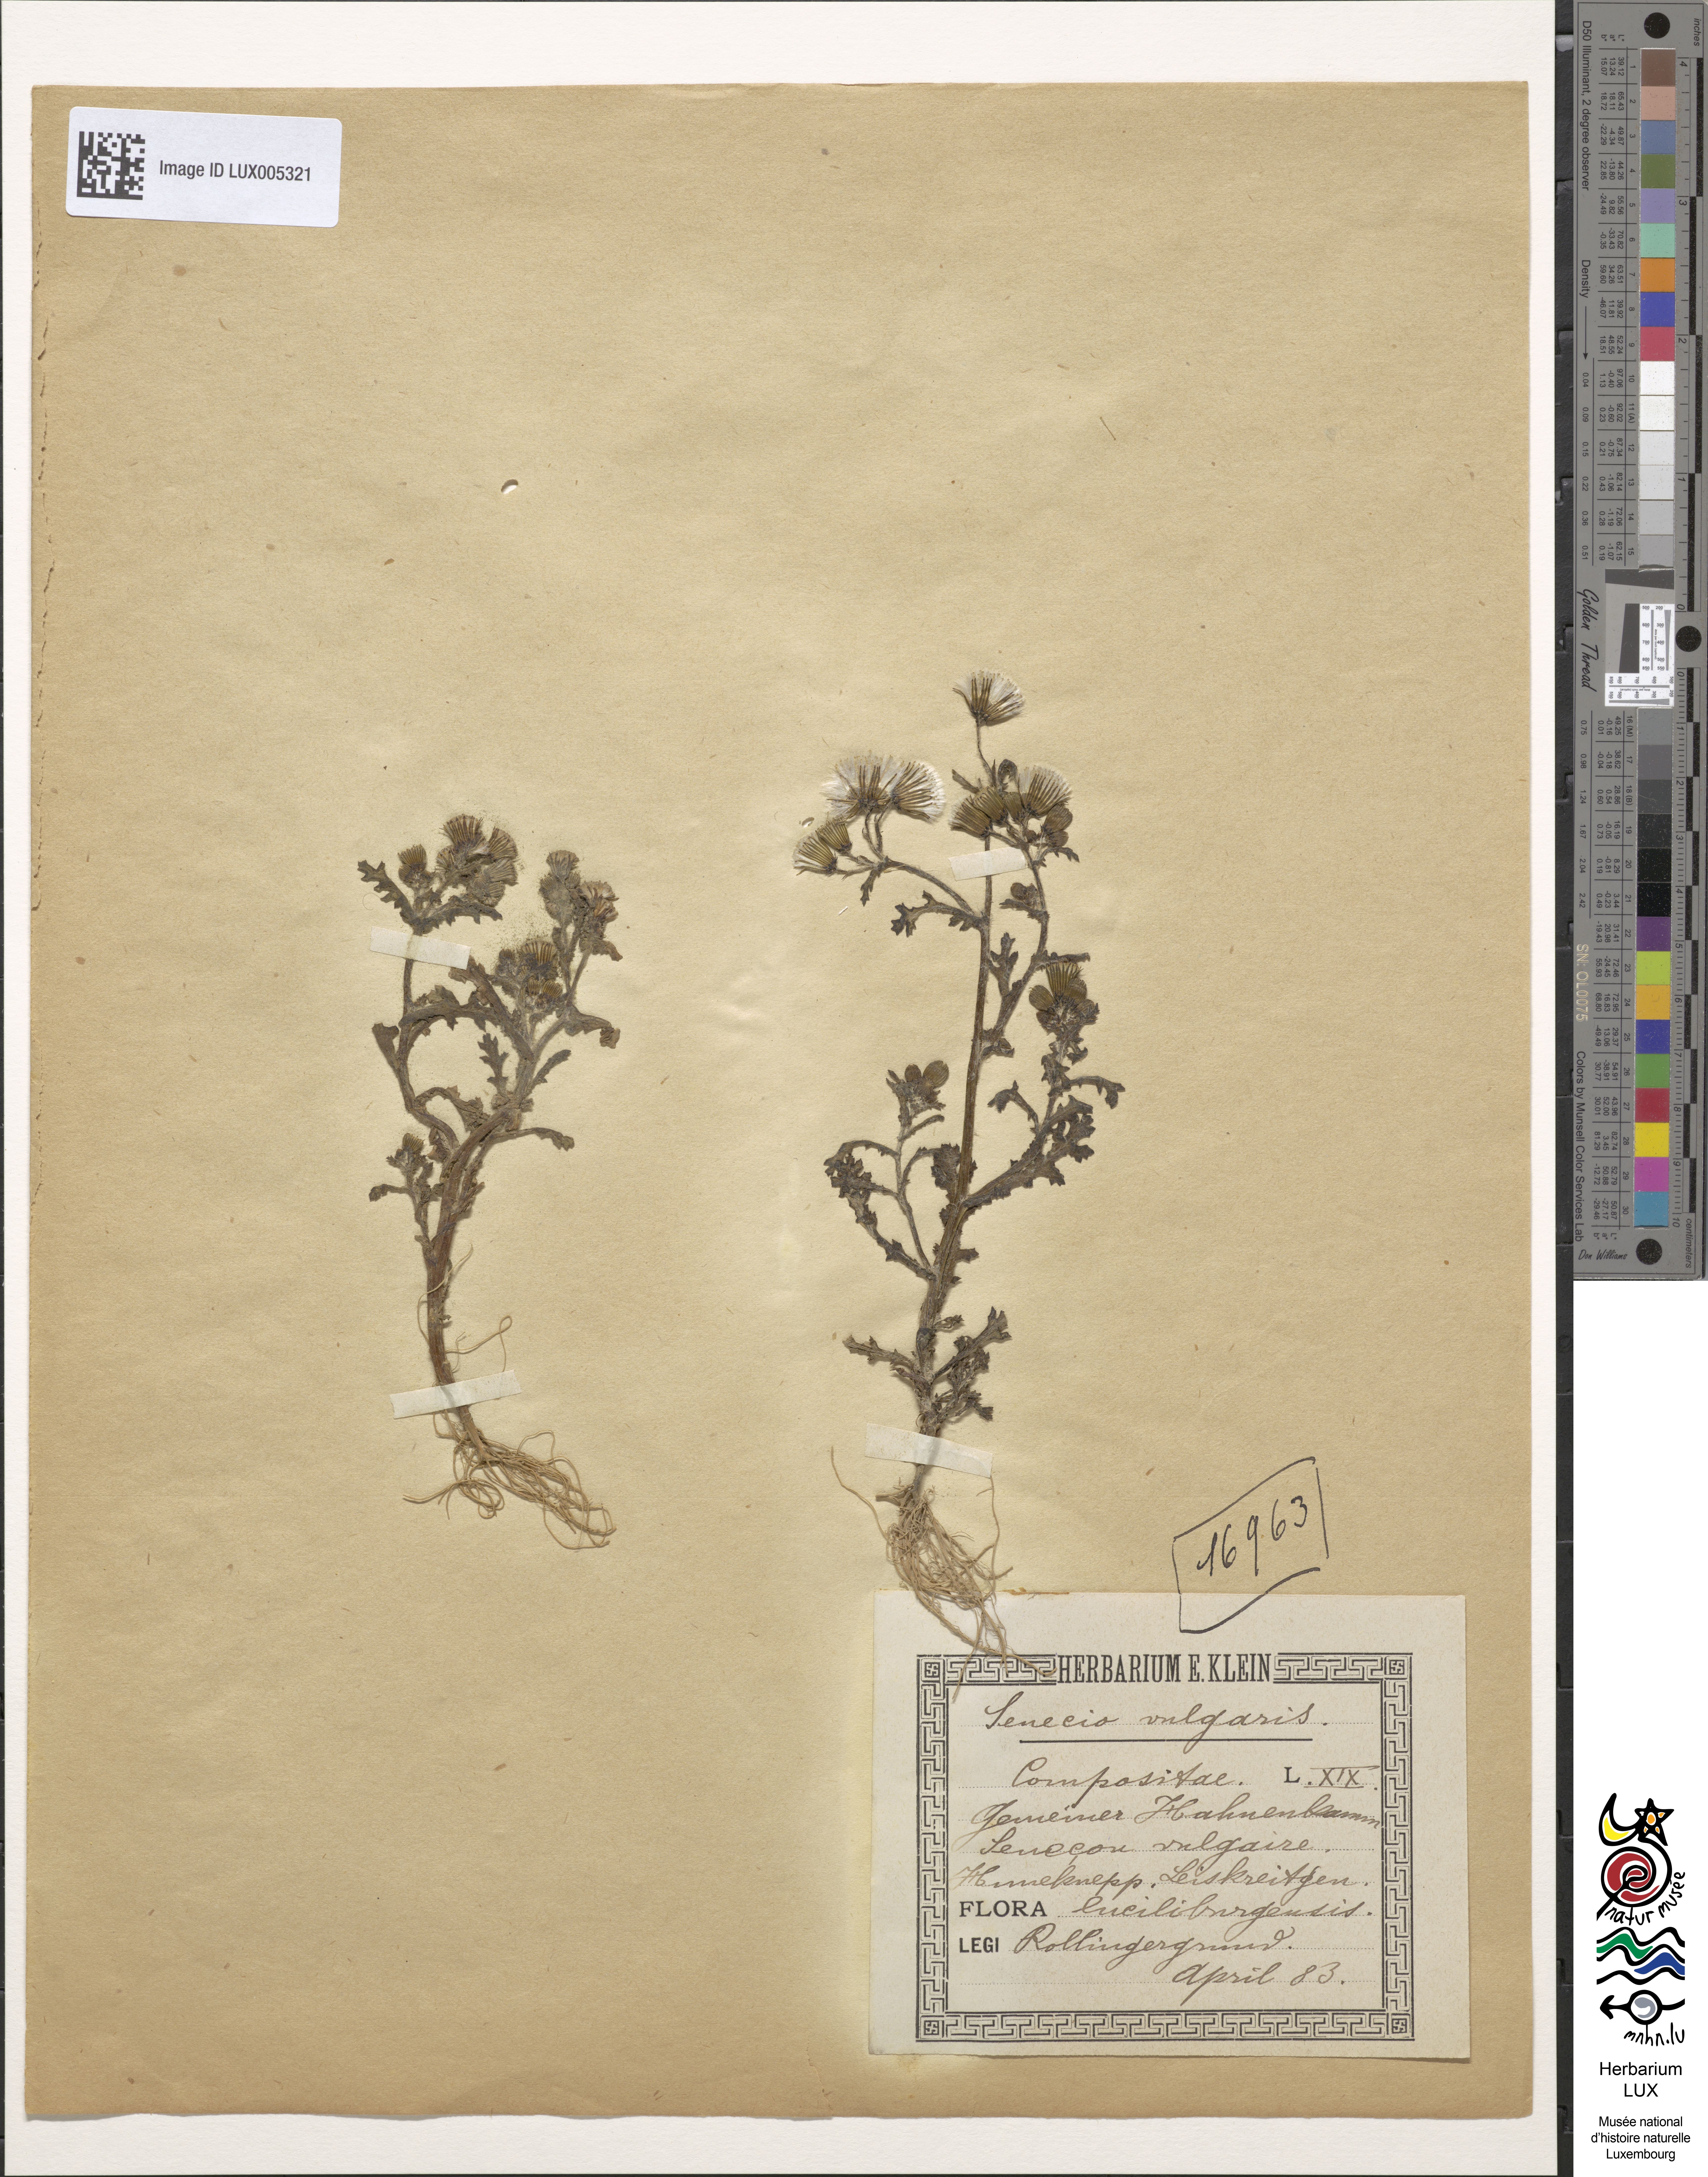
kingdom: Plantae
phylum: Tracheophyta
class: Magnoliopsida
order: Asterales
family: Asteraceae
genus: Senecio
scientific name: Senecio vulgaris
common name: Old-man-in-the-spring
